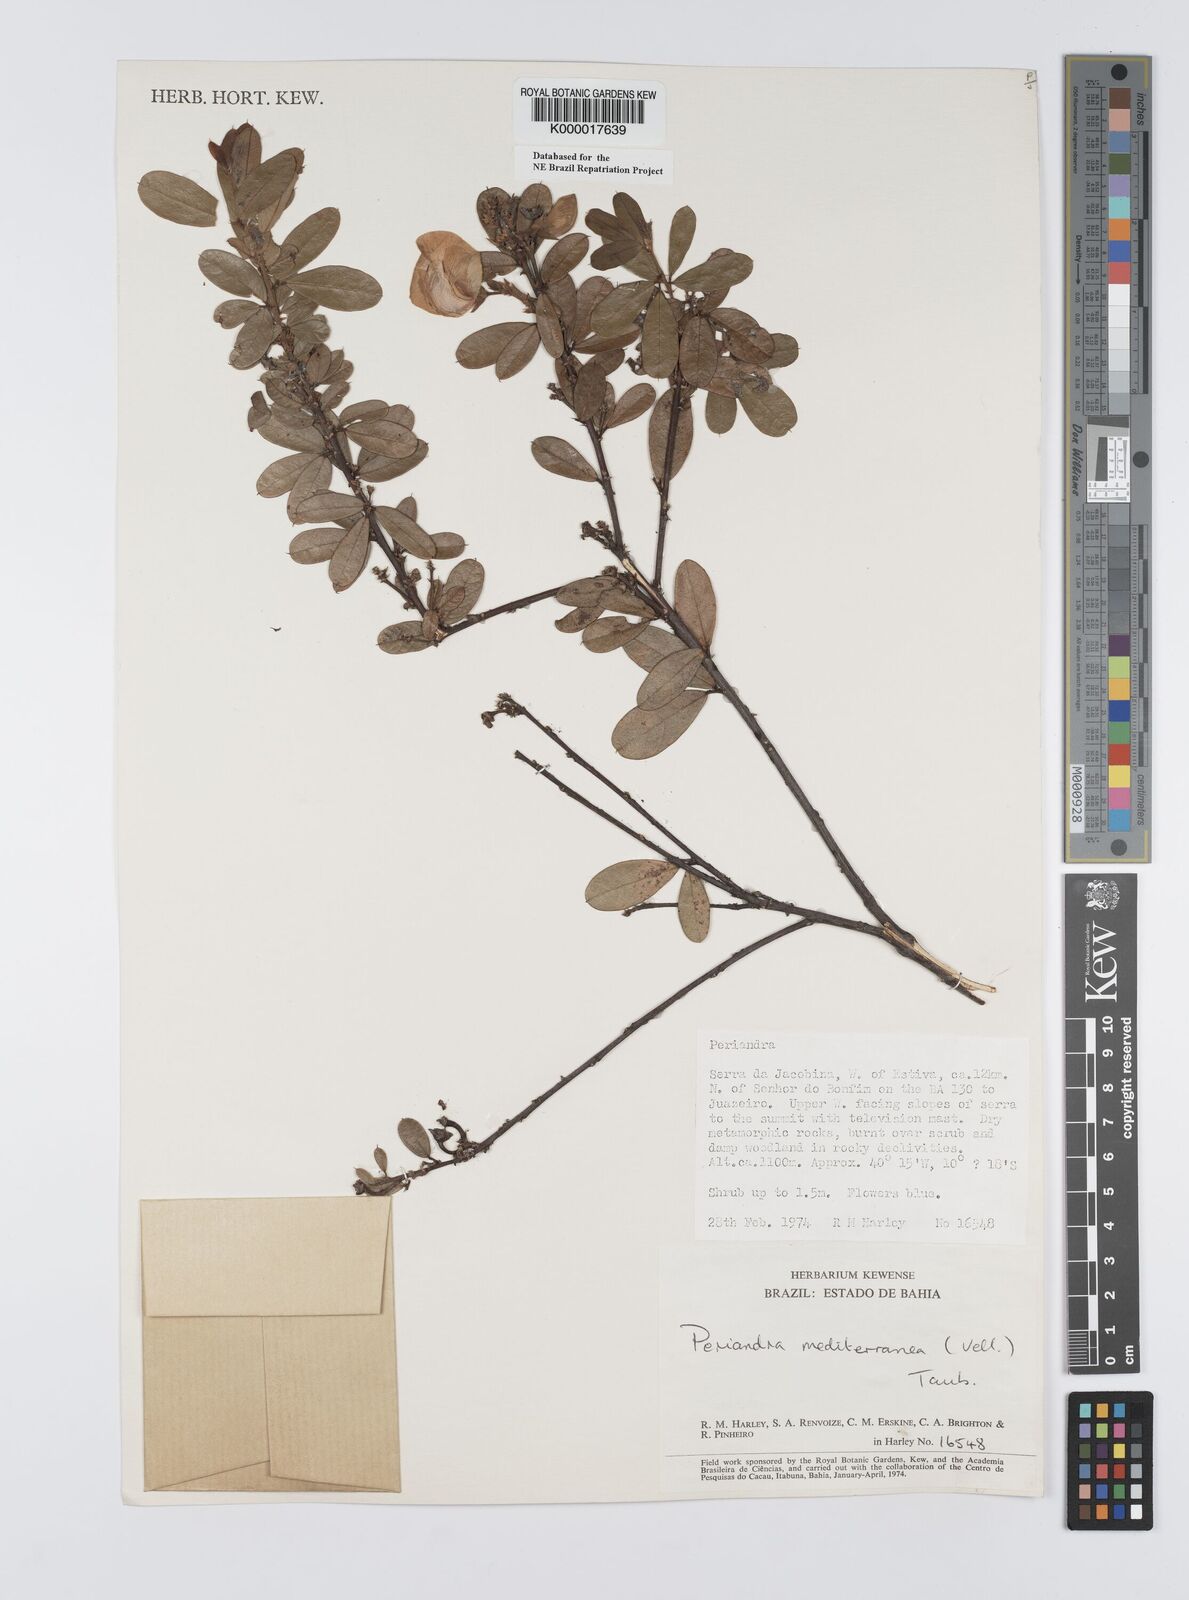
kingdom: Plantae
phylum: Tracheophyta
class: Magnoliopsida
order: Fabales
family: Fabaceae
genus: Periandra
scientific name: Periandra mediterranea
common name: Brazilian licorice
